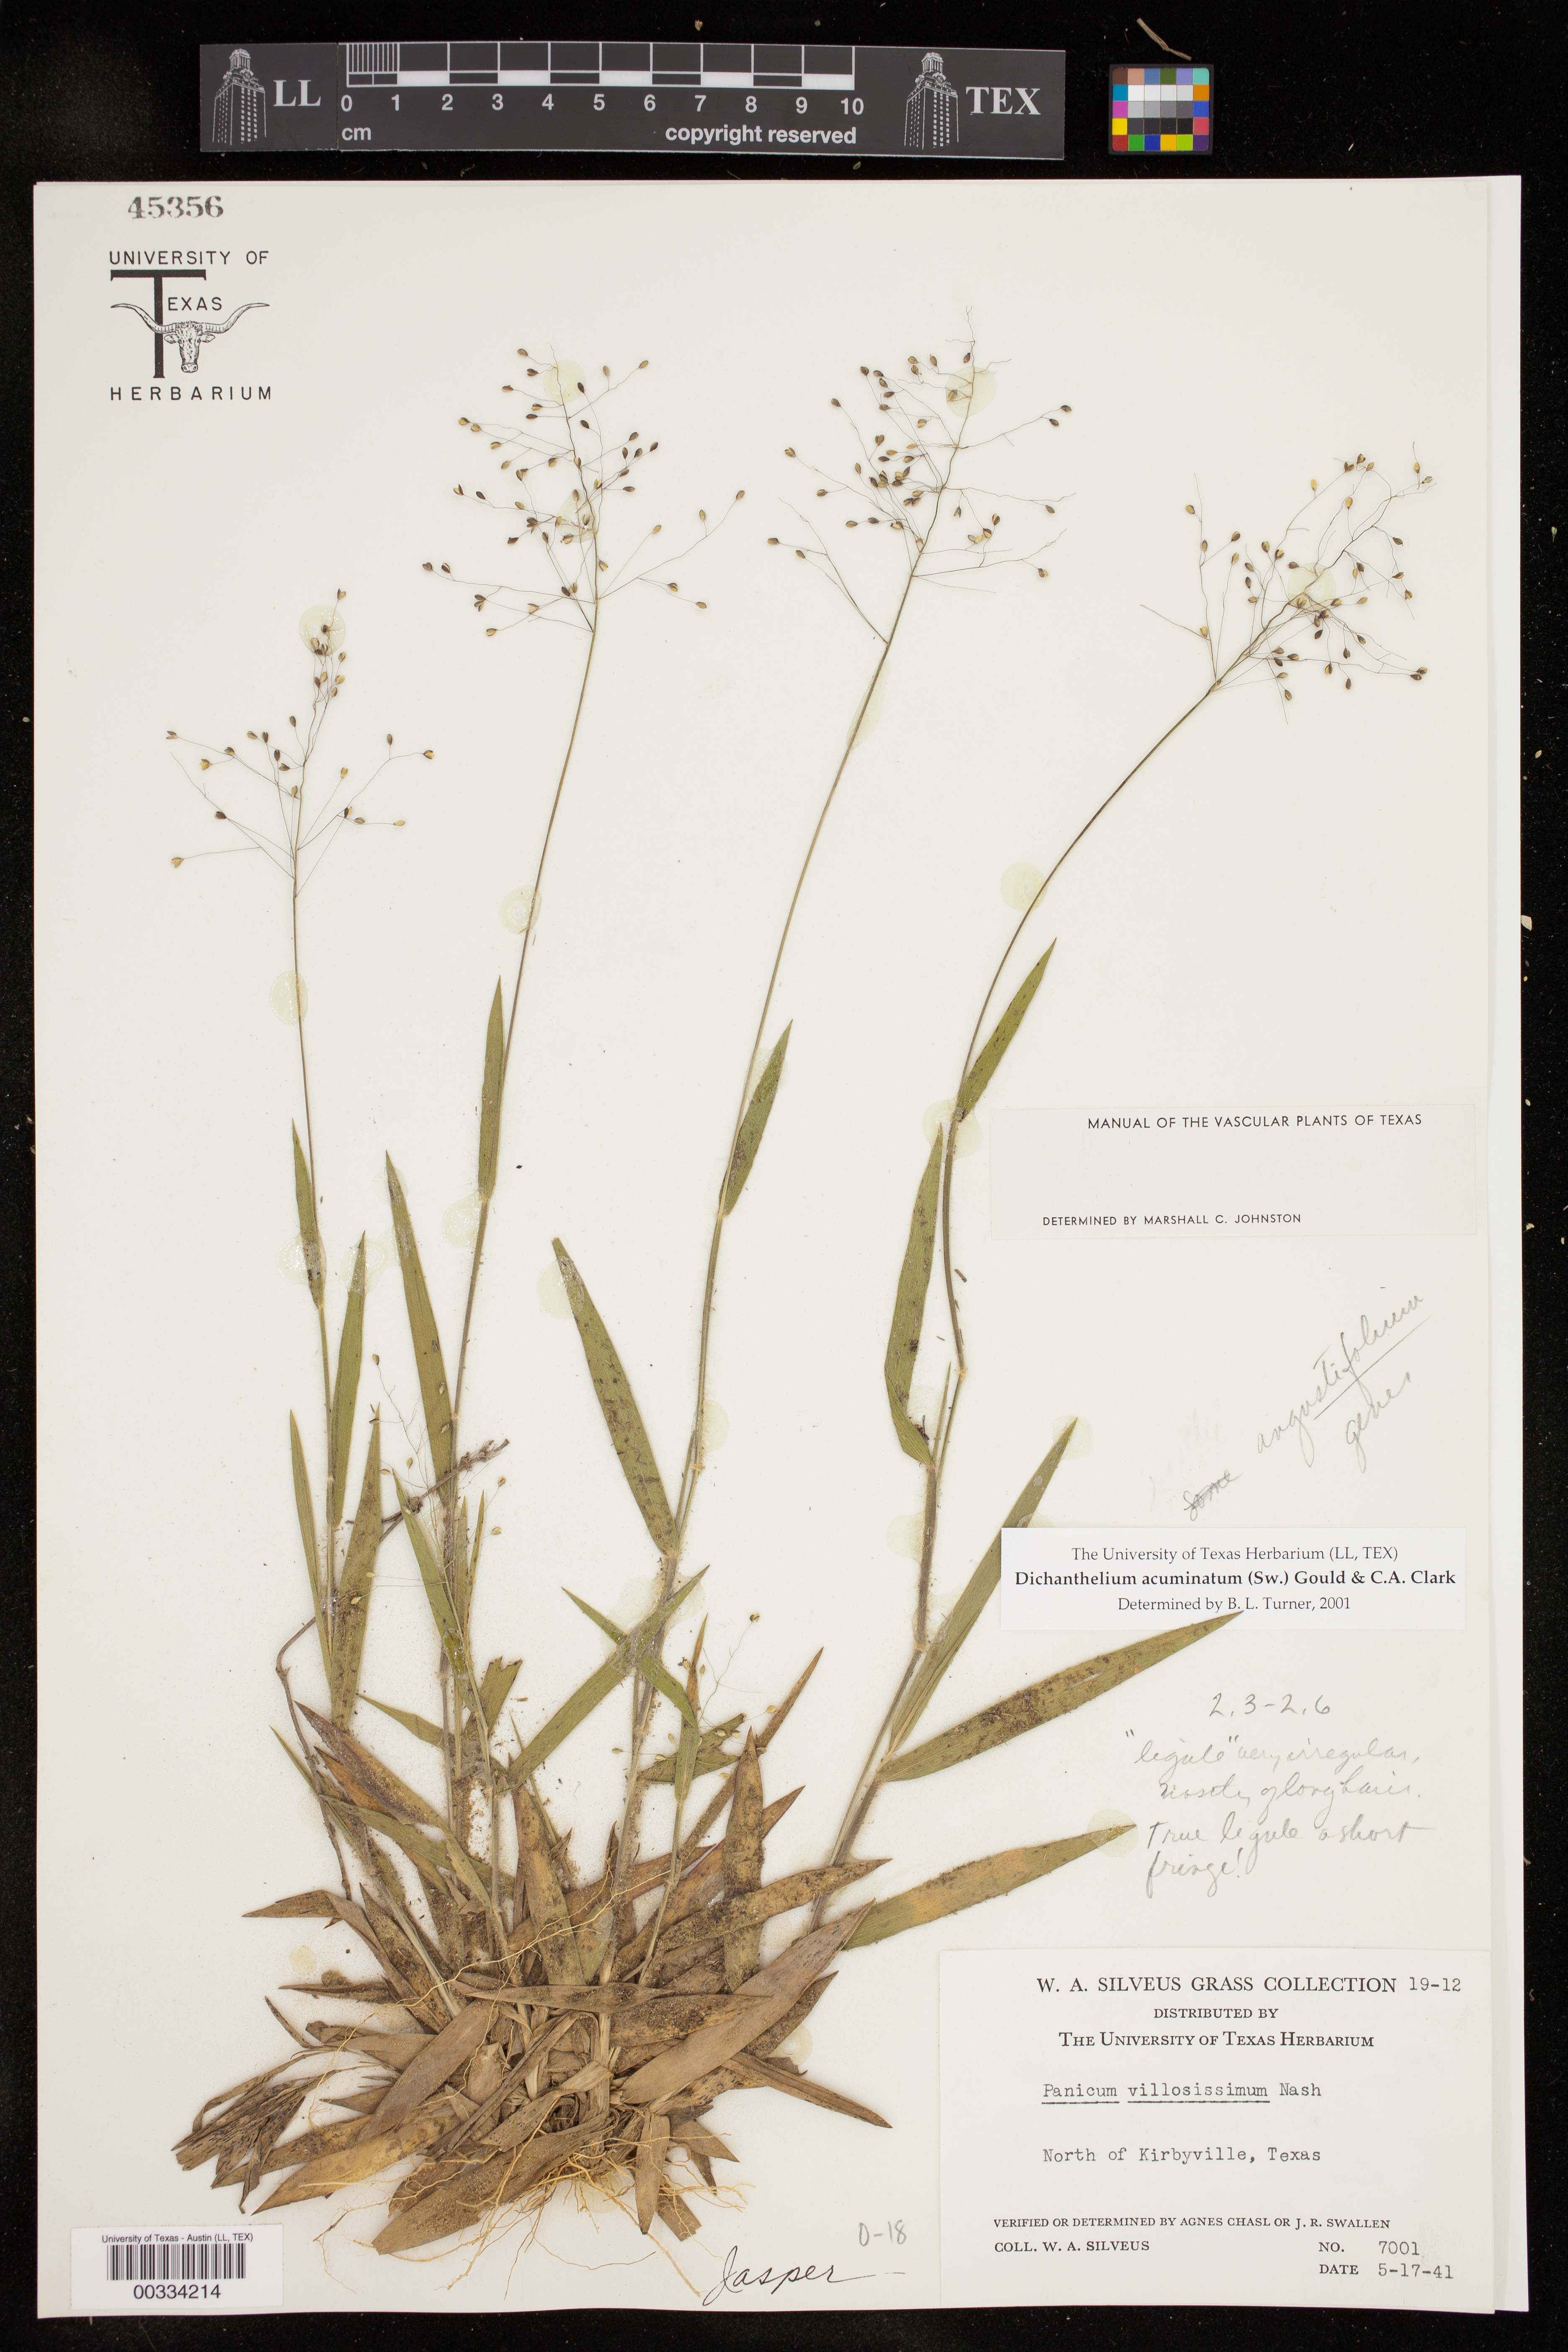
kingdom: Plantae
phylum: Tracheophyta
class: Liliopsida
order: Poales
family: Poaceae
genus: Dichanthelium
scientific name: Dichanthelium acuminatum
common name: Hairy panic grass
